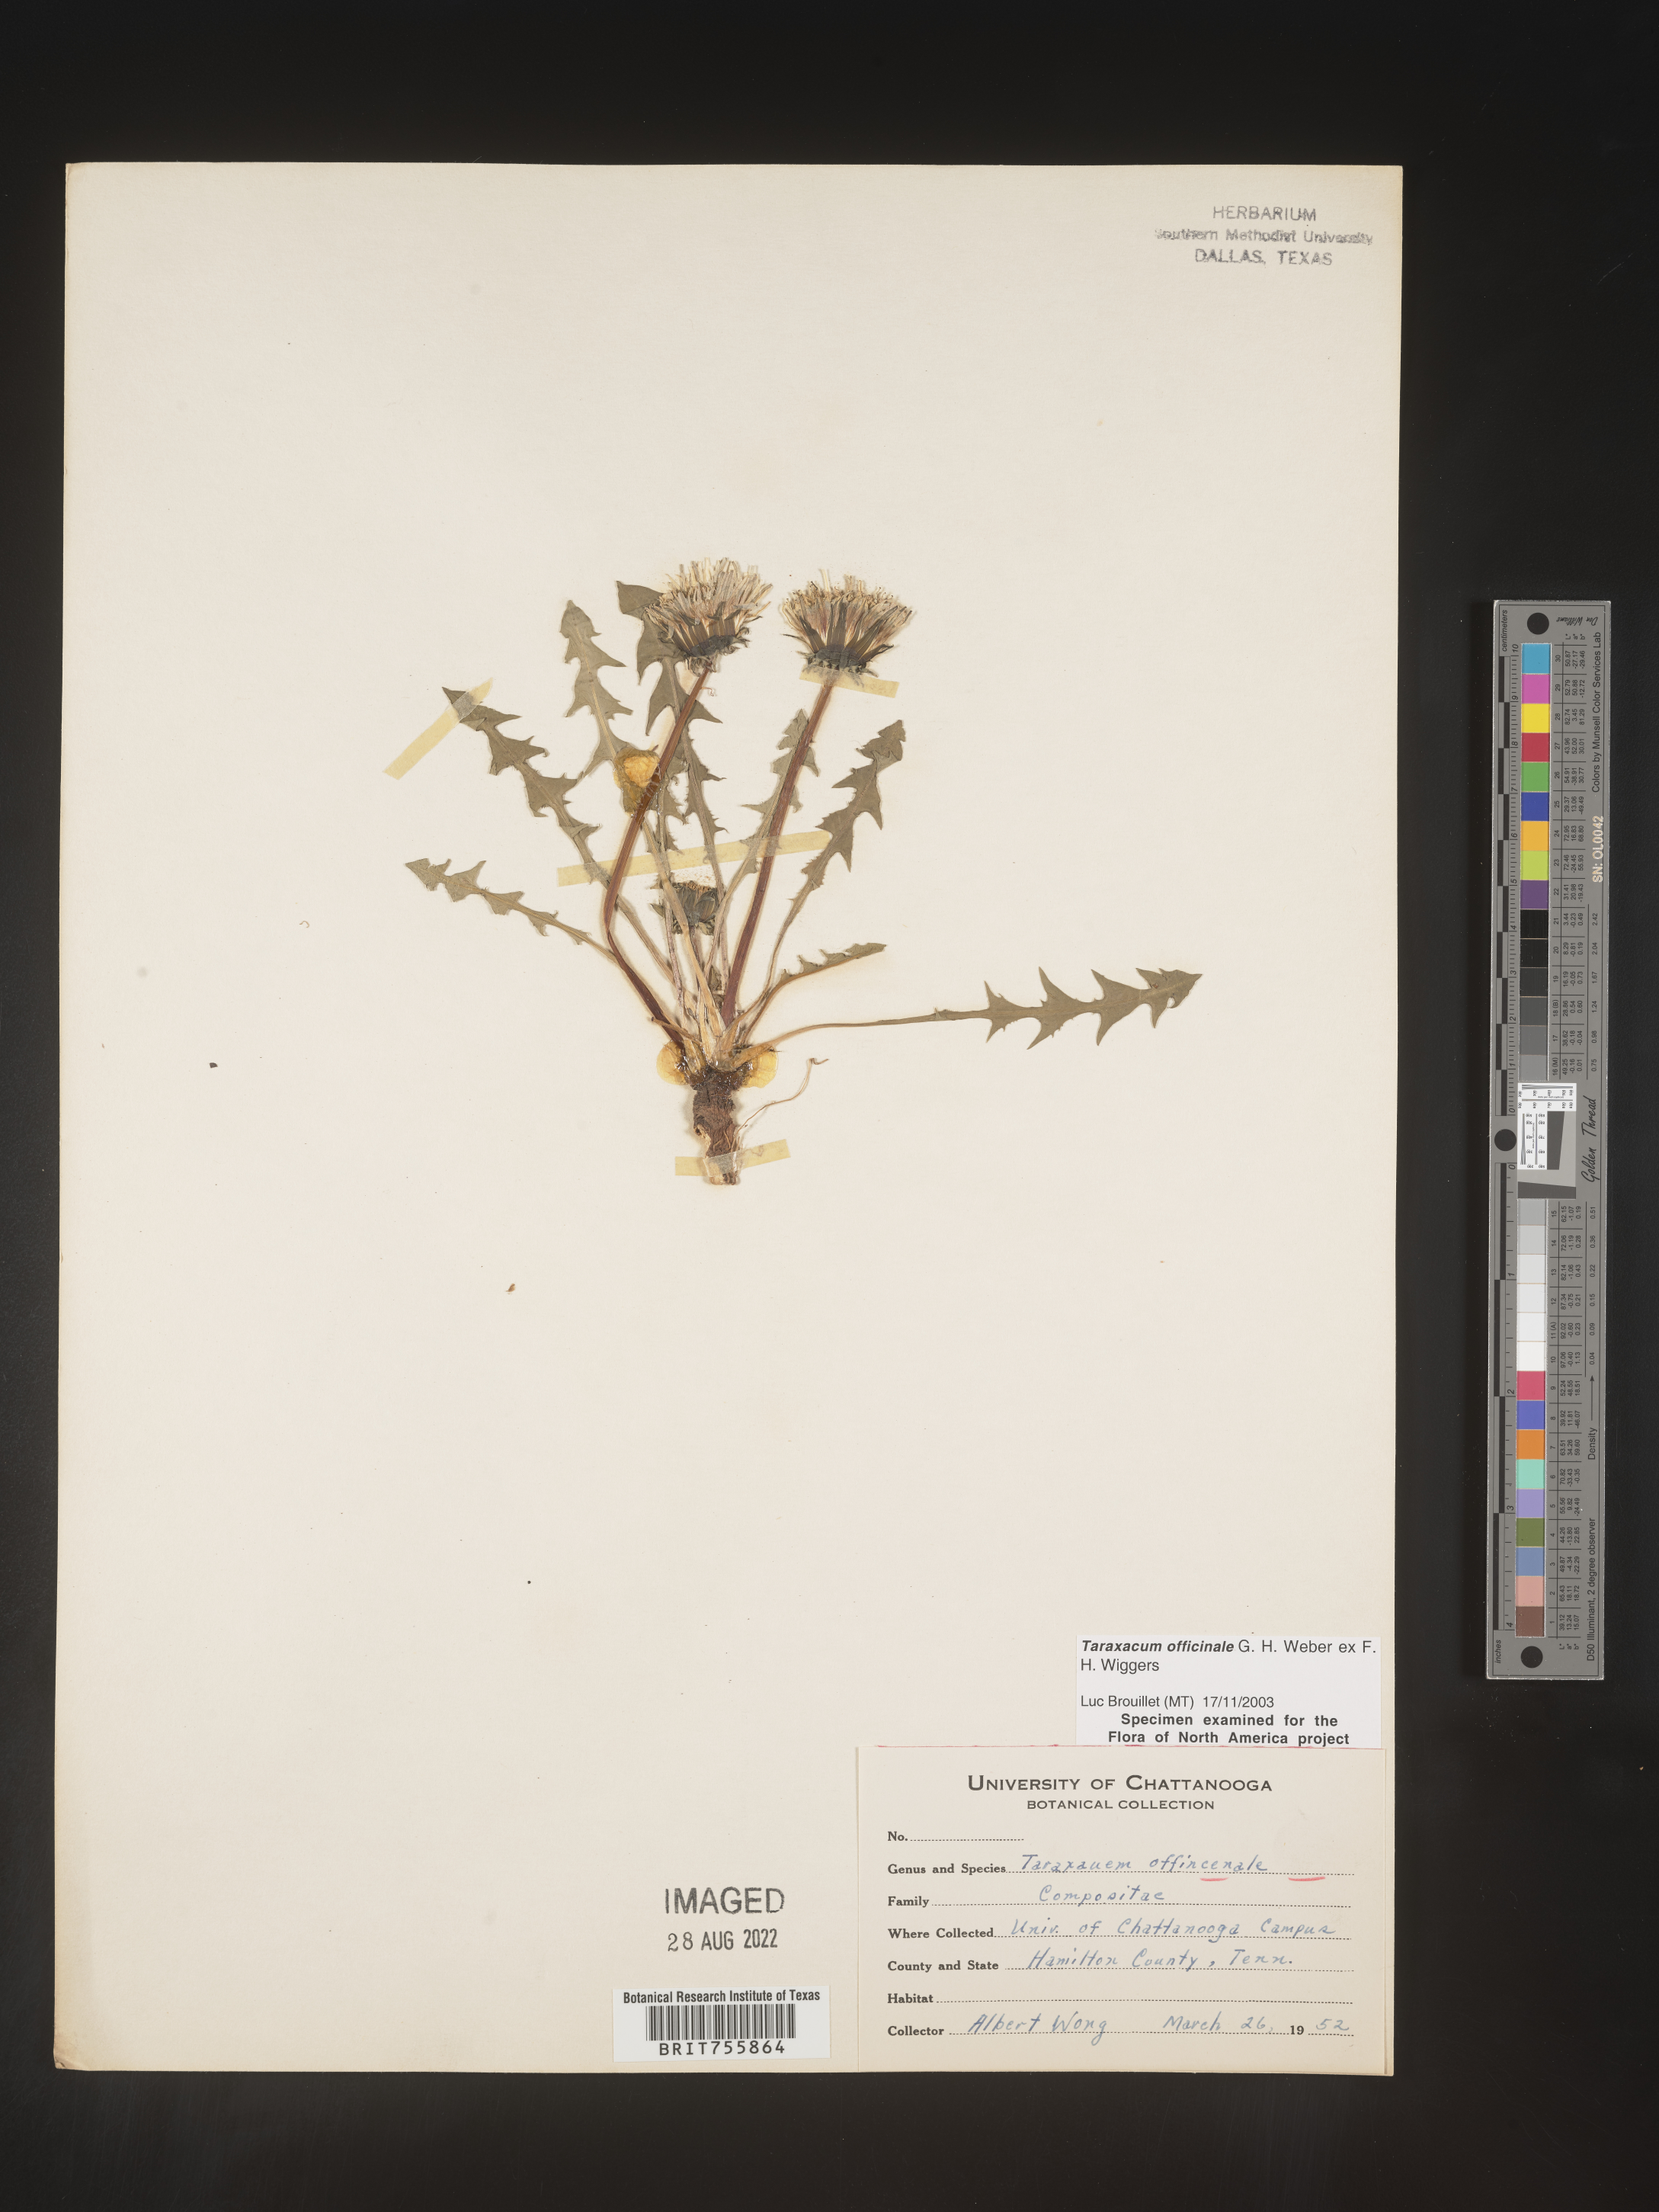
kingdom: Plantae
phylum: Tracheophyta
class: Magnoliopsida
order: Asterales
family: Asteraceae
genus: Taraxacum
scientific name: Taraxacum officinale
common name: Common dandelion
